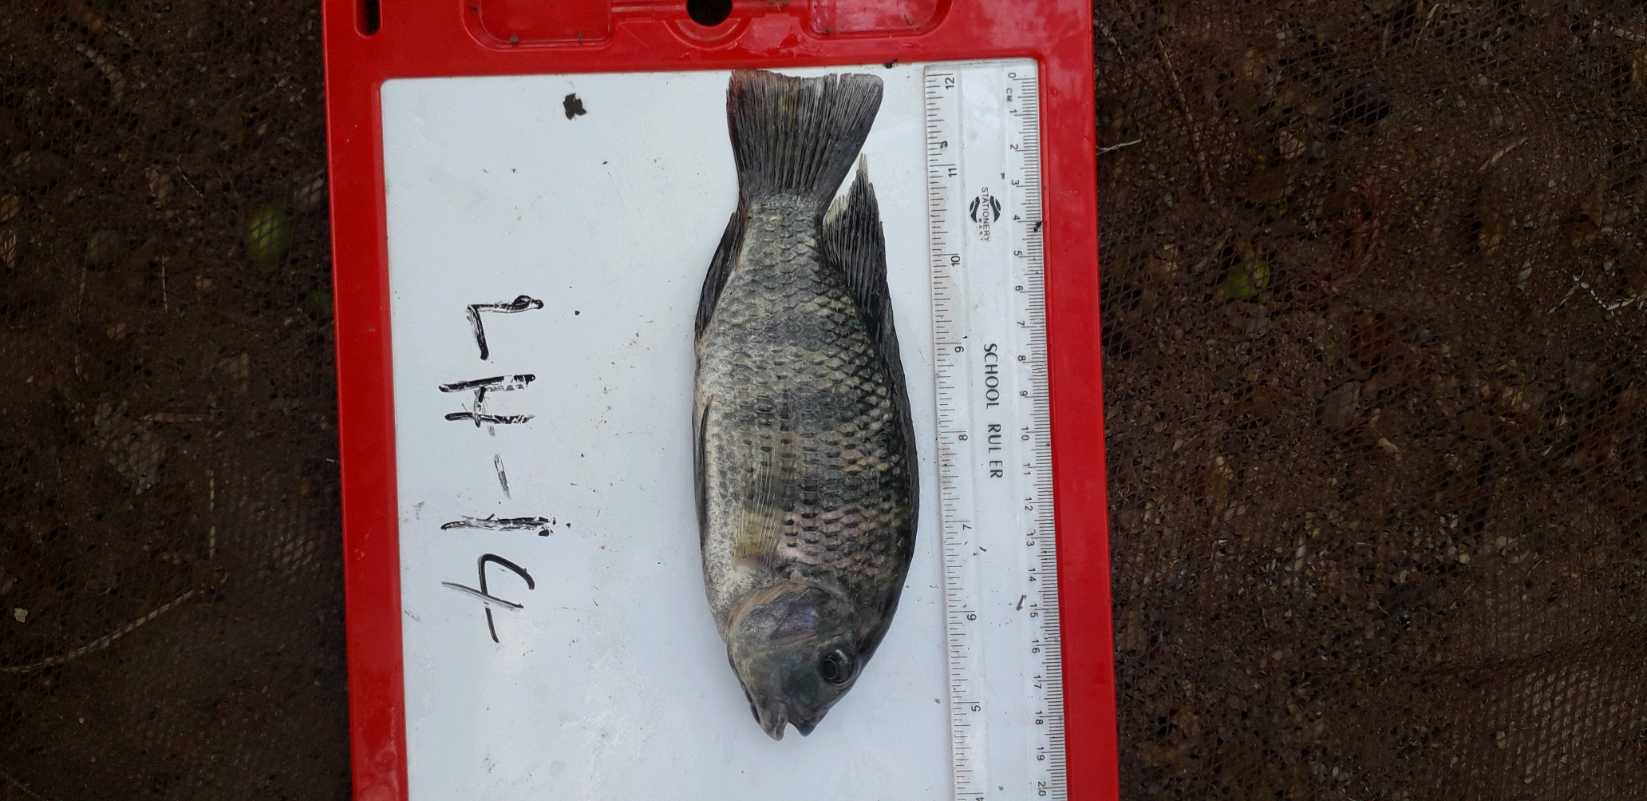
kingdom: Animalia
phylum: Chordata
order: Perciformes
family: Cichlidae
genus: Coptodon
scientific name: Coptodon rendalli
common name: Redbreast tilapia
